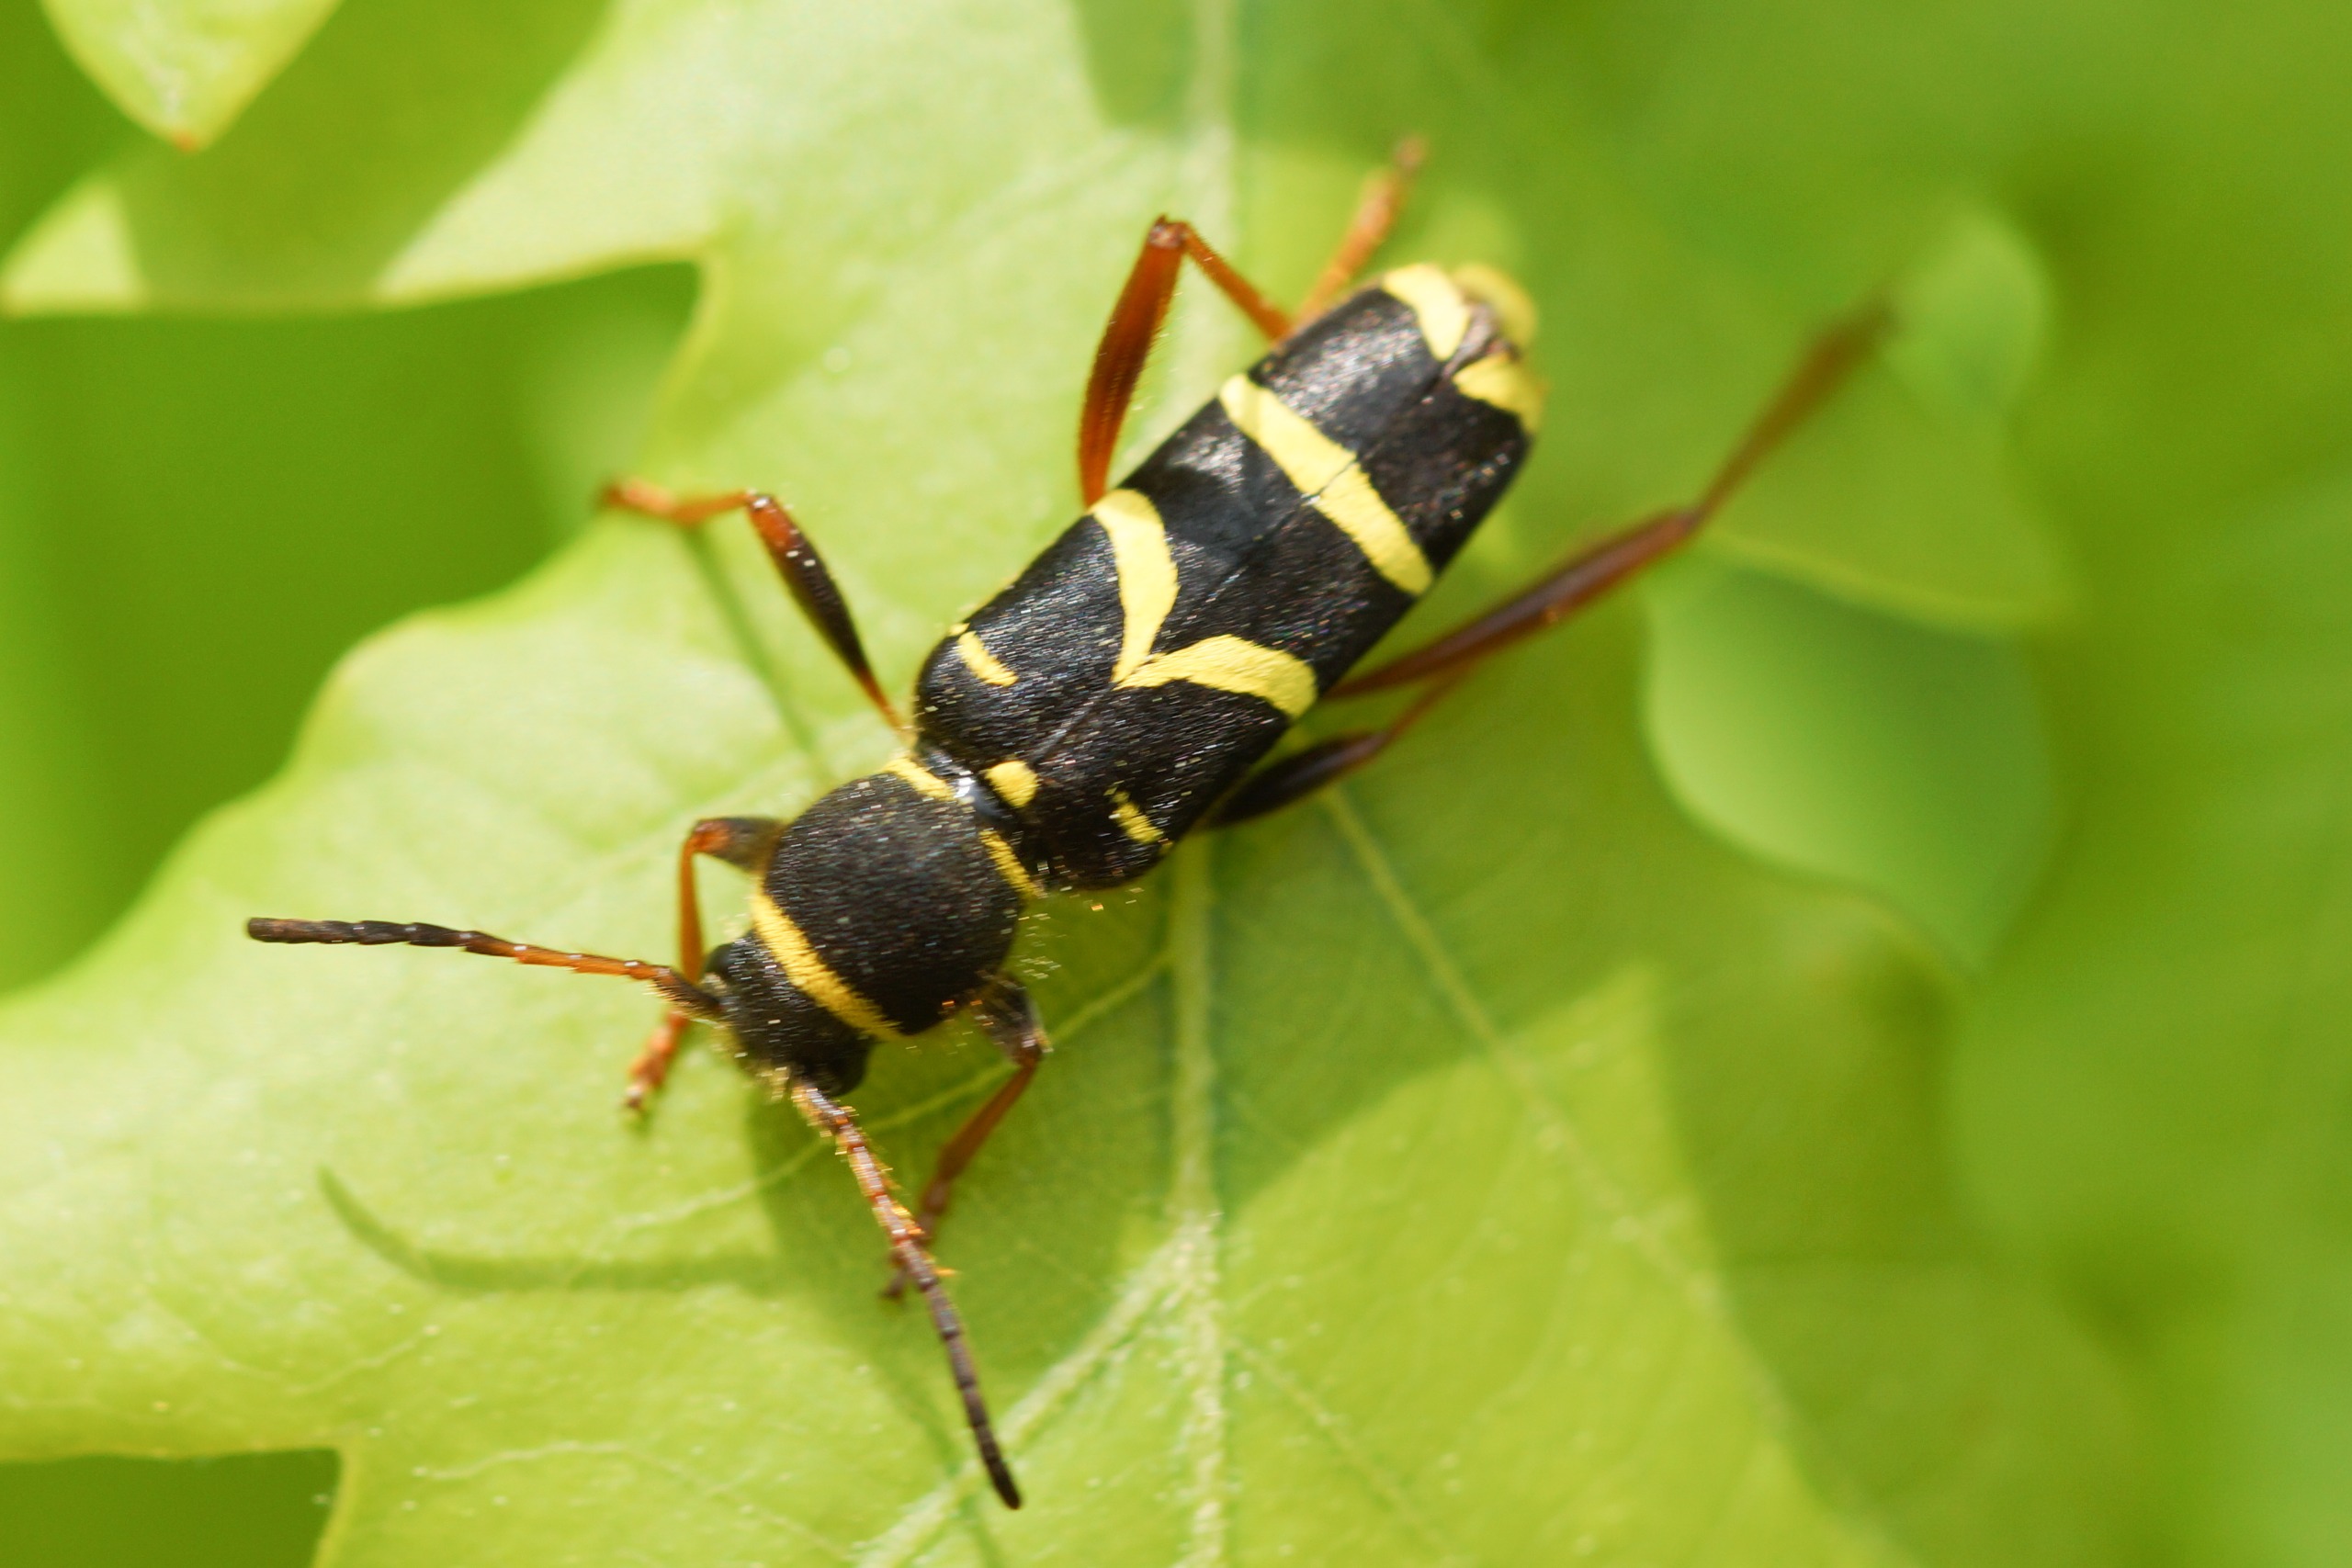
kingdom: Animalia
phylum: Arthropoda
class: Insecta
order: Coleoptera
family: Cerambycidae
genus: Clytus
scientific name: Clytus arietis
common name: Lille hvepsebuk
